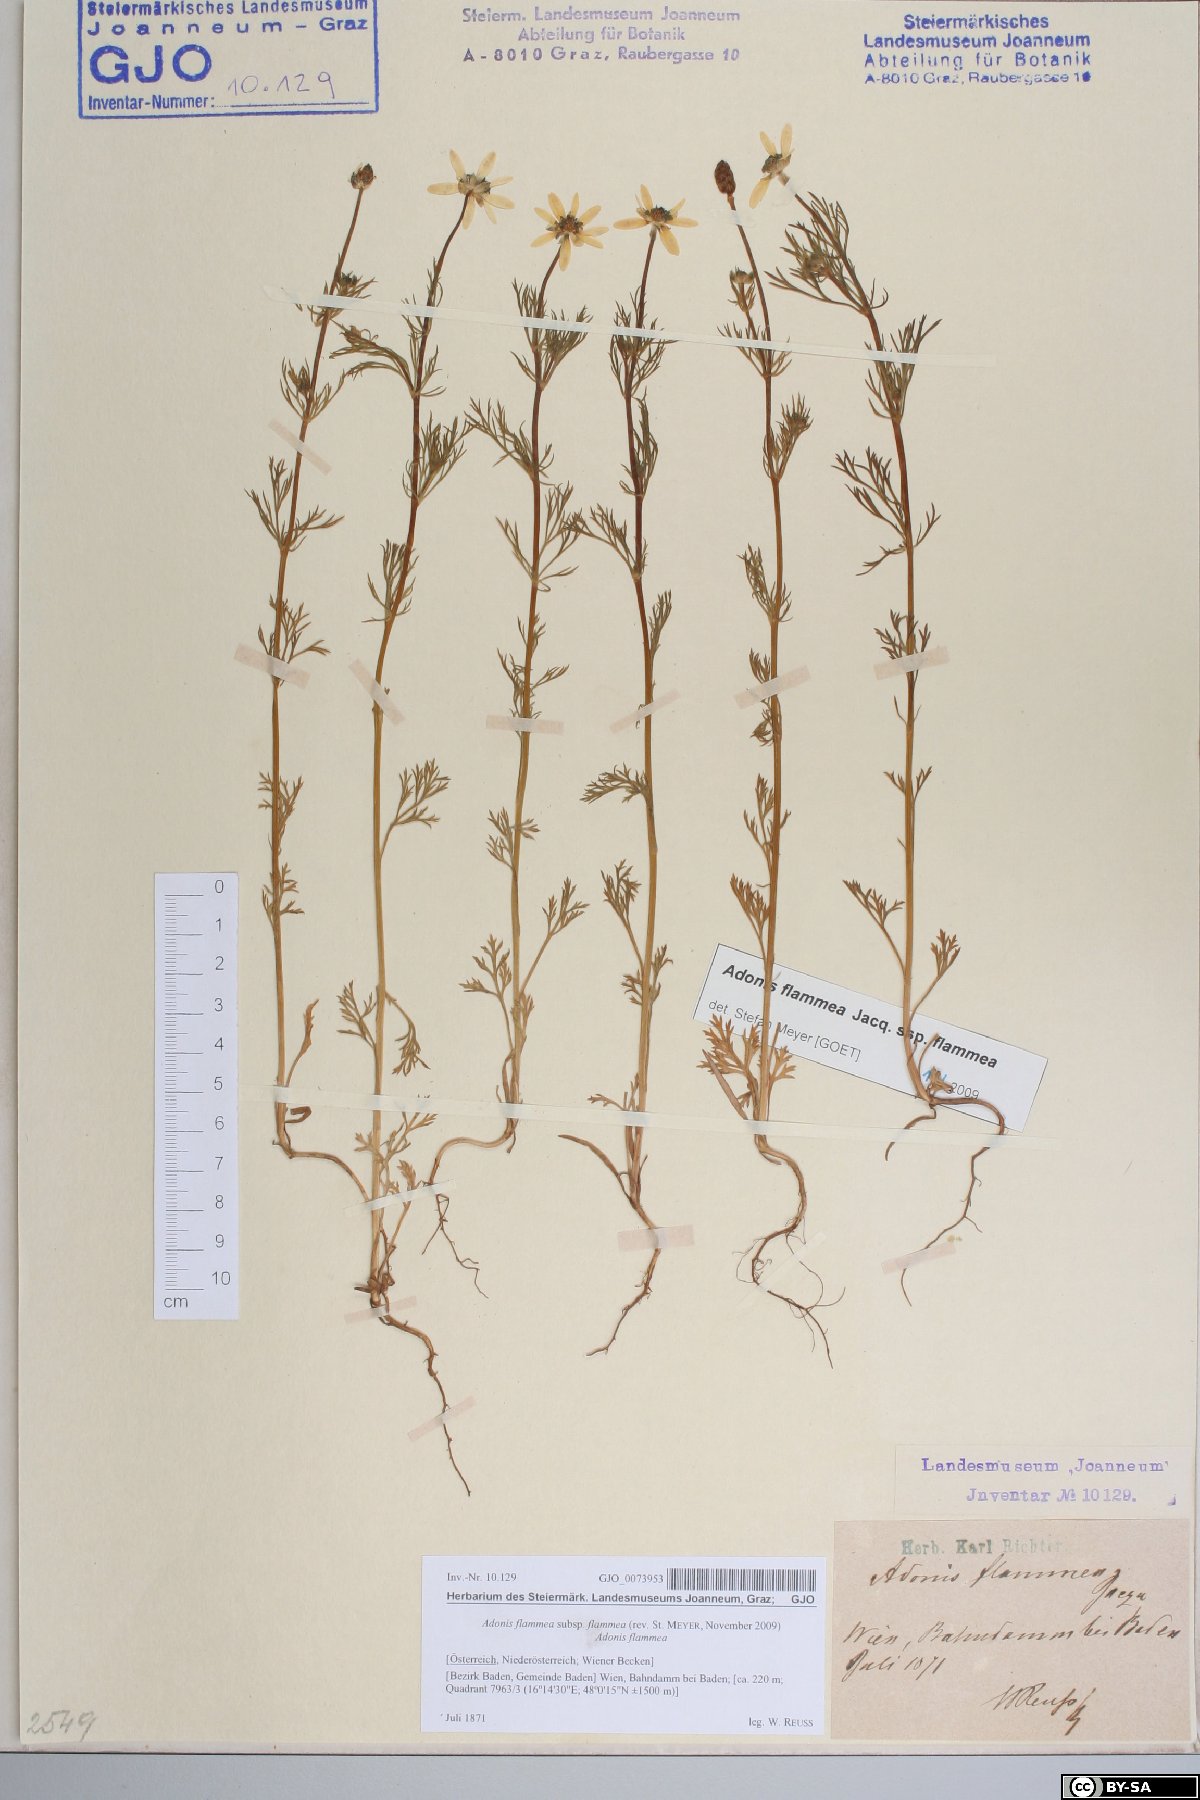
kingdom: Plantae
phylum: Tracheophyta
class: Magnoliopsida
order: Ranunculales
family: Ranunculaceae
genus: Adonis
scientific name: Adonis flammea
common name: Large pheasant's-eye
